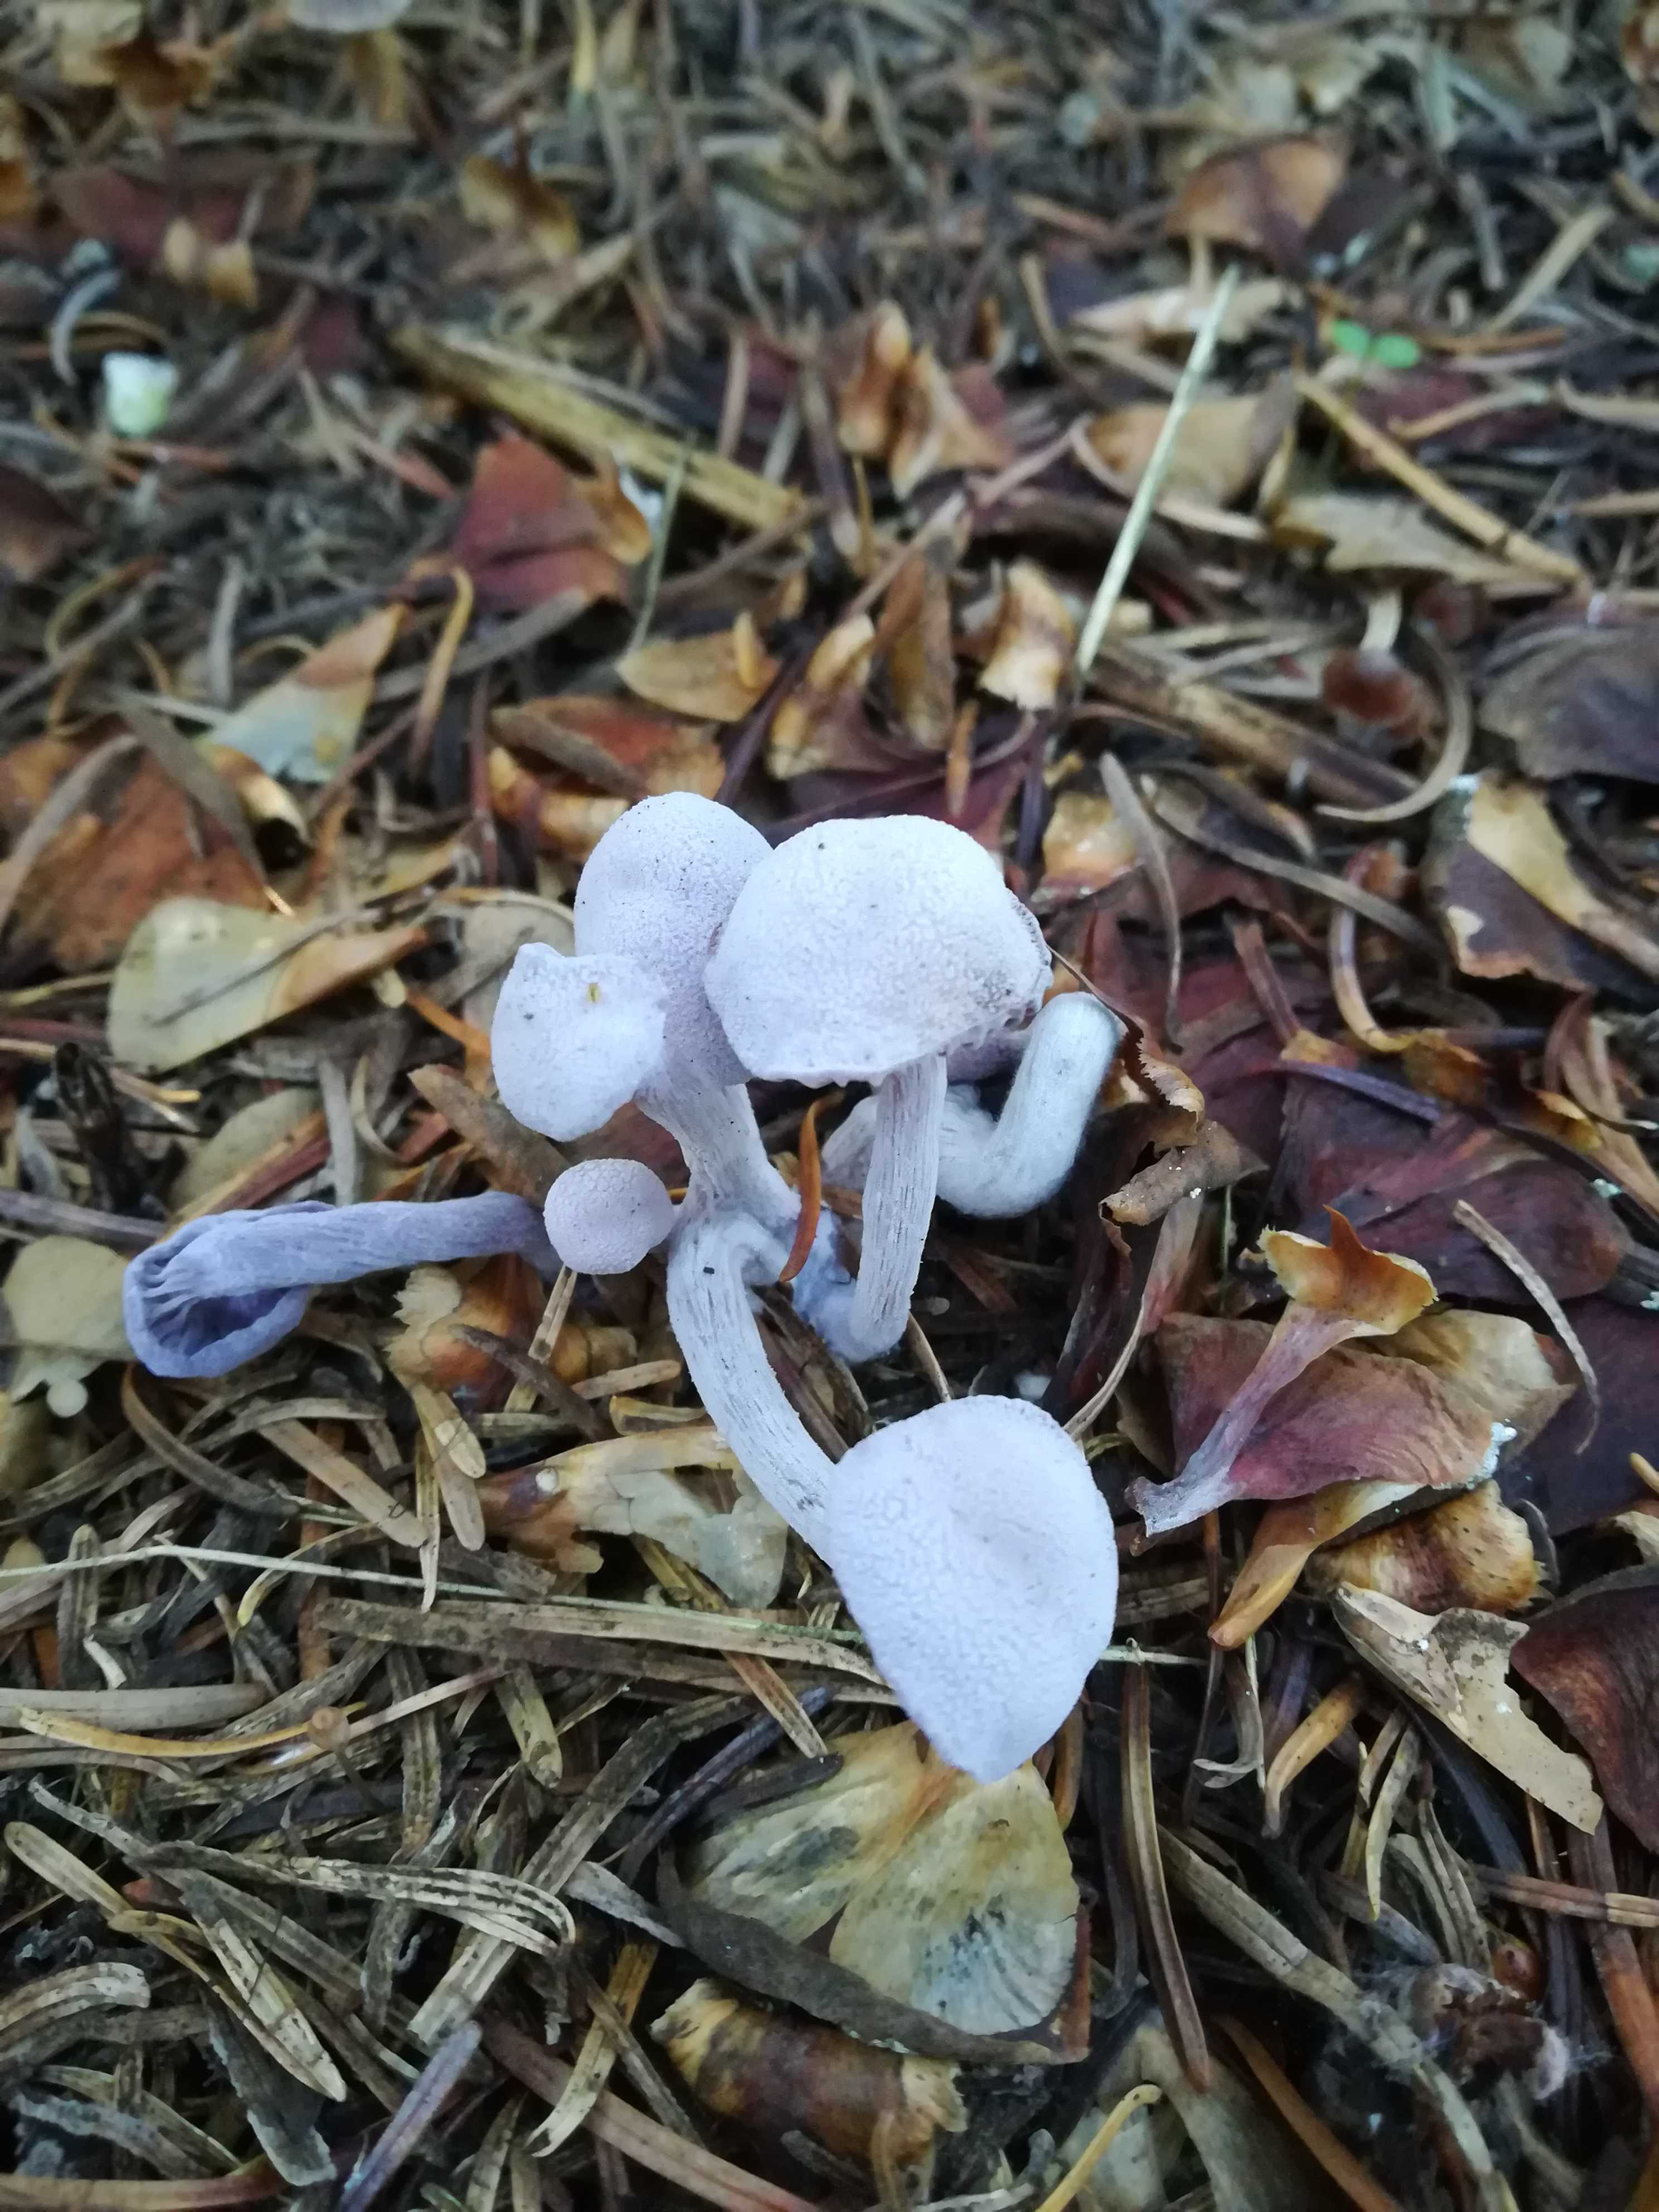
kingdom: Fungi
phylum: Basidiomycota
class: Agaricomycetes
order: Agaricales
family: Hydnangiaceae
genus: Laccaria
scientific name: Laccaria amethystina
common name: violet ametysthat
